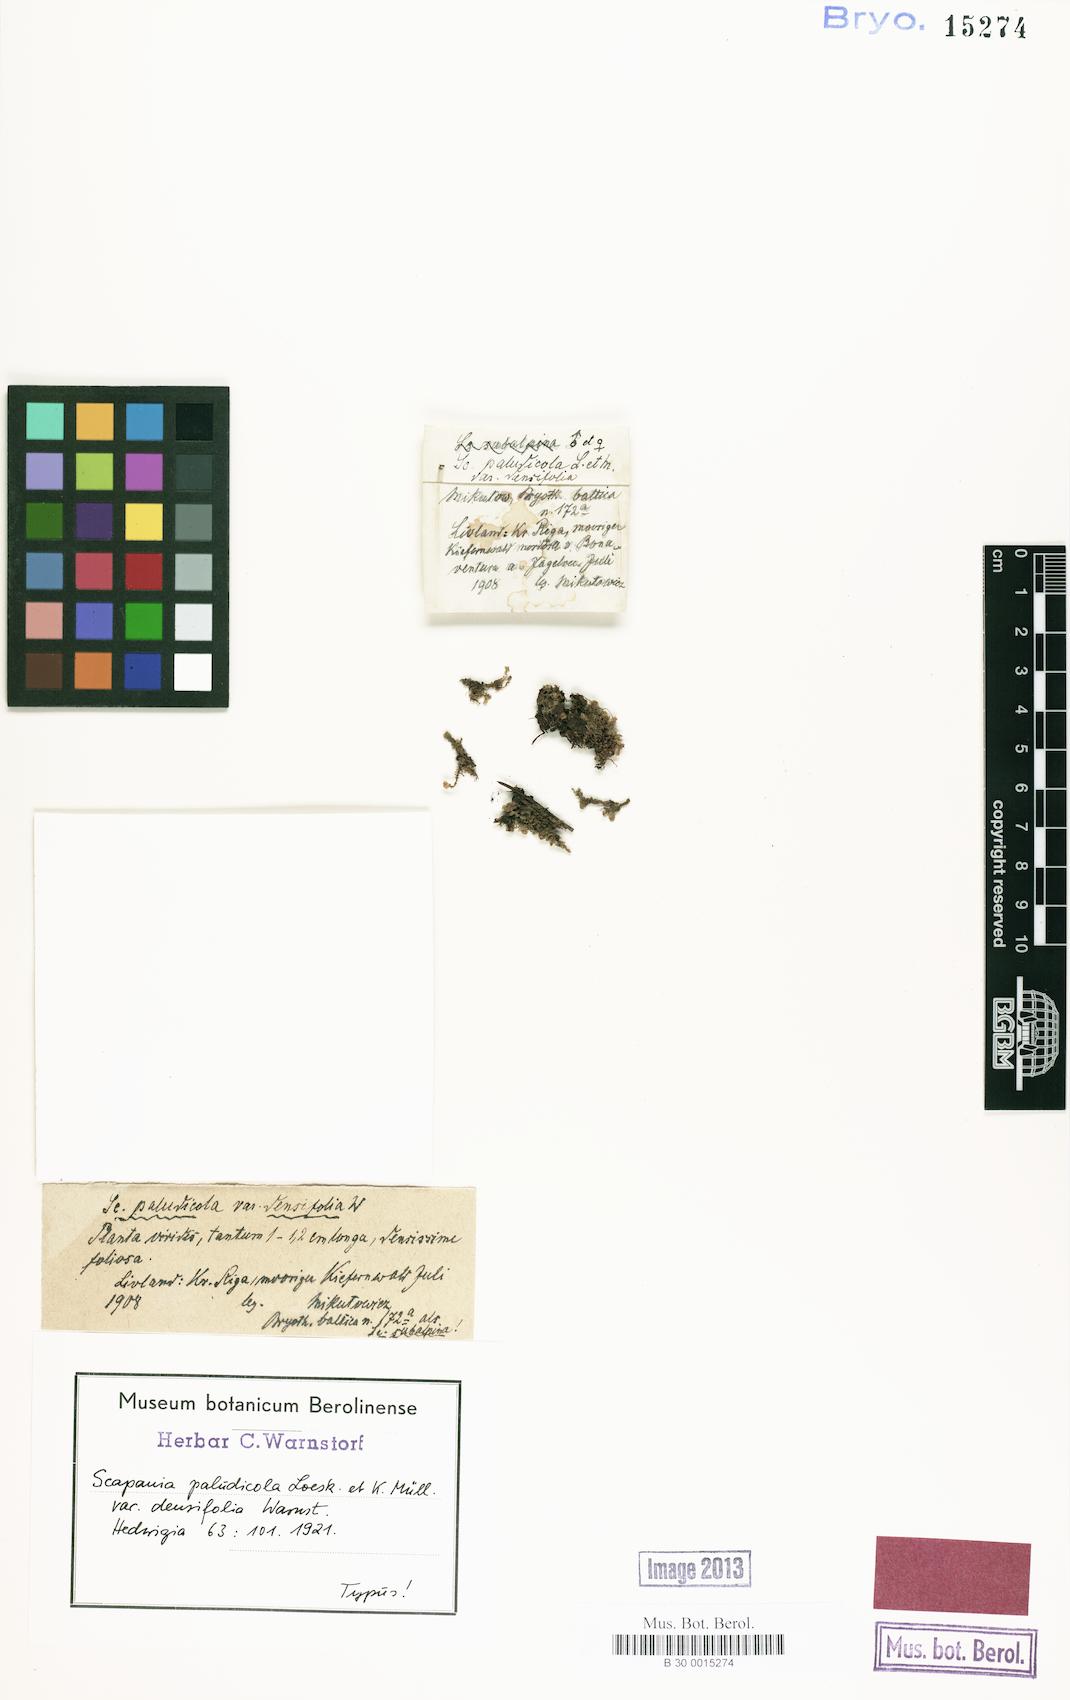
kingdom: Plantae
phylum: Marchantiophyta
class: Jungermanniopsida
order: Jungermanniales
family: Scapaniaceae
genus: Scapania
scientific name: Scapania paludicola
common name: Bog earwort
